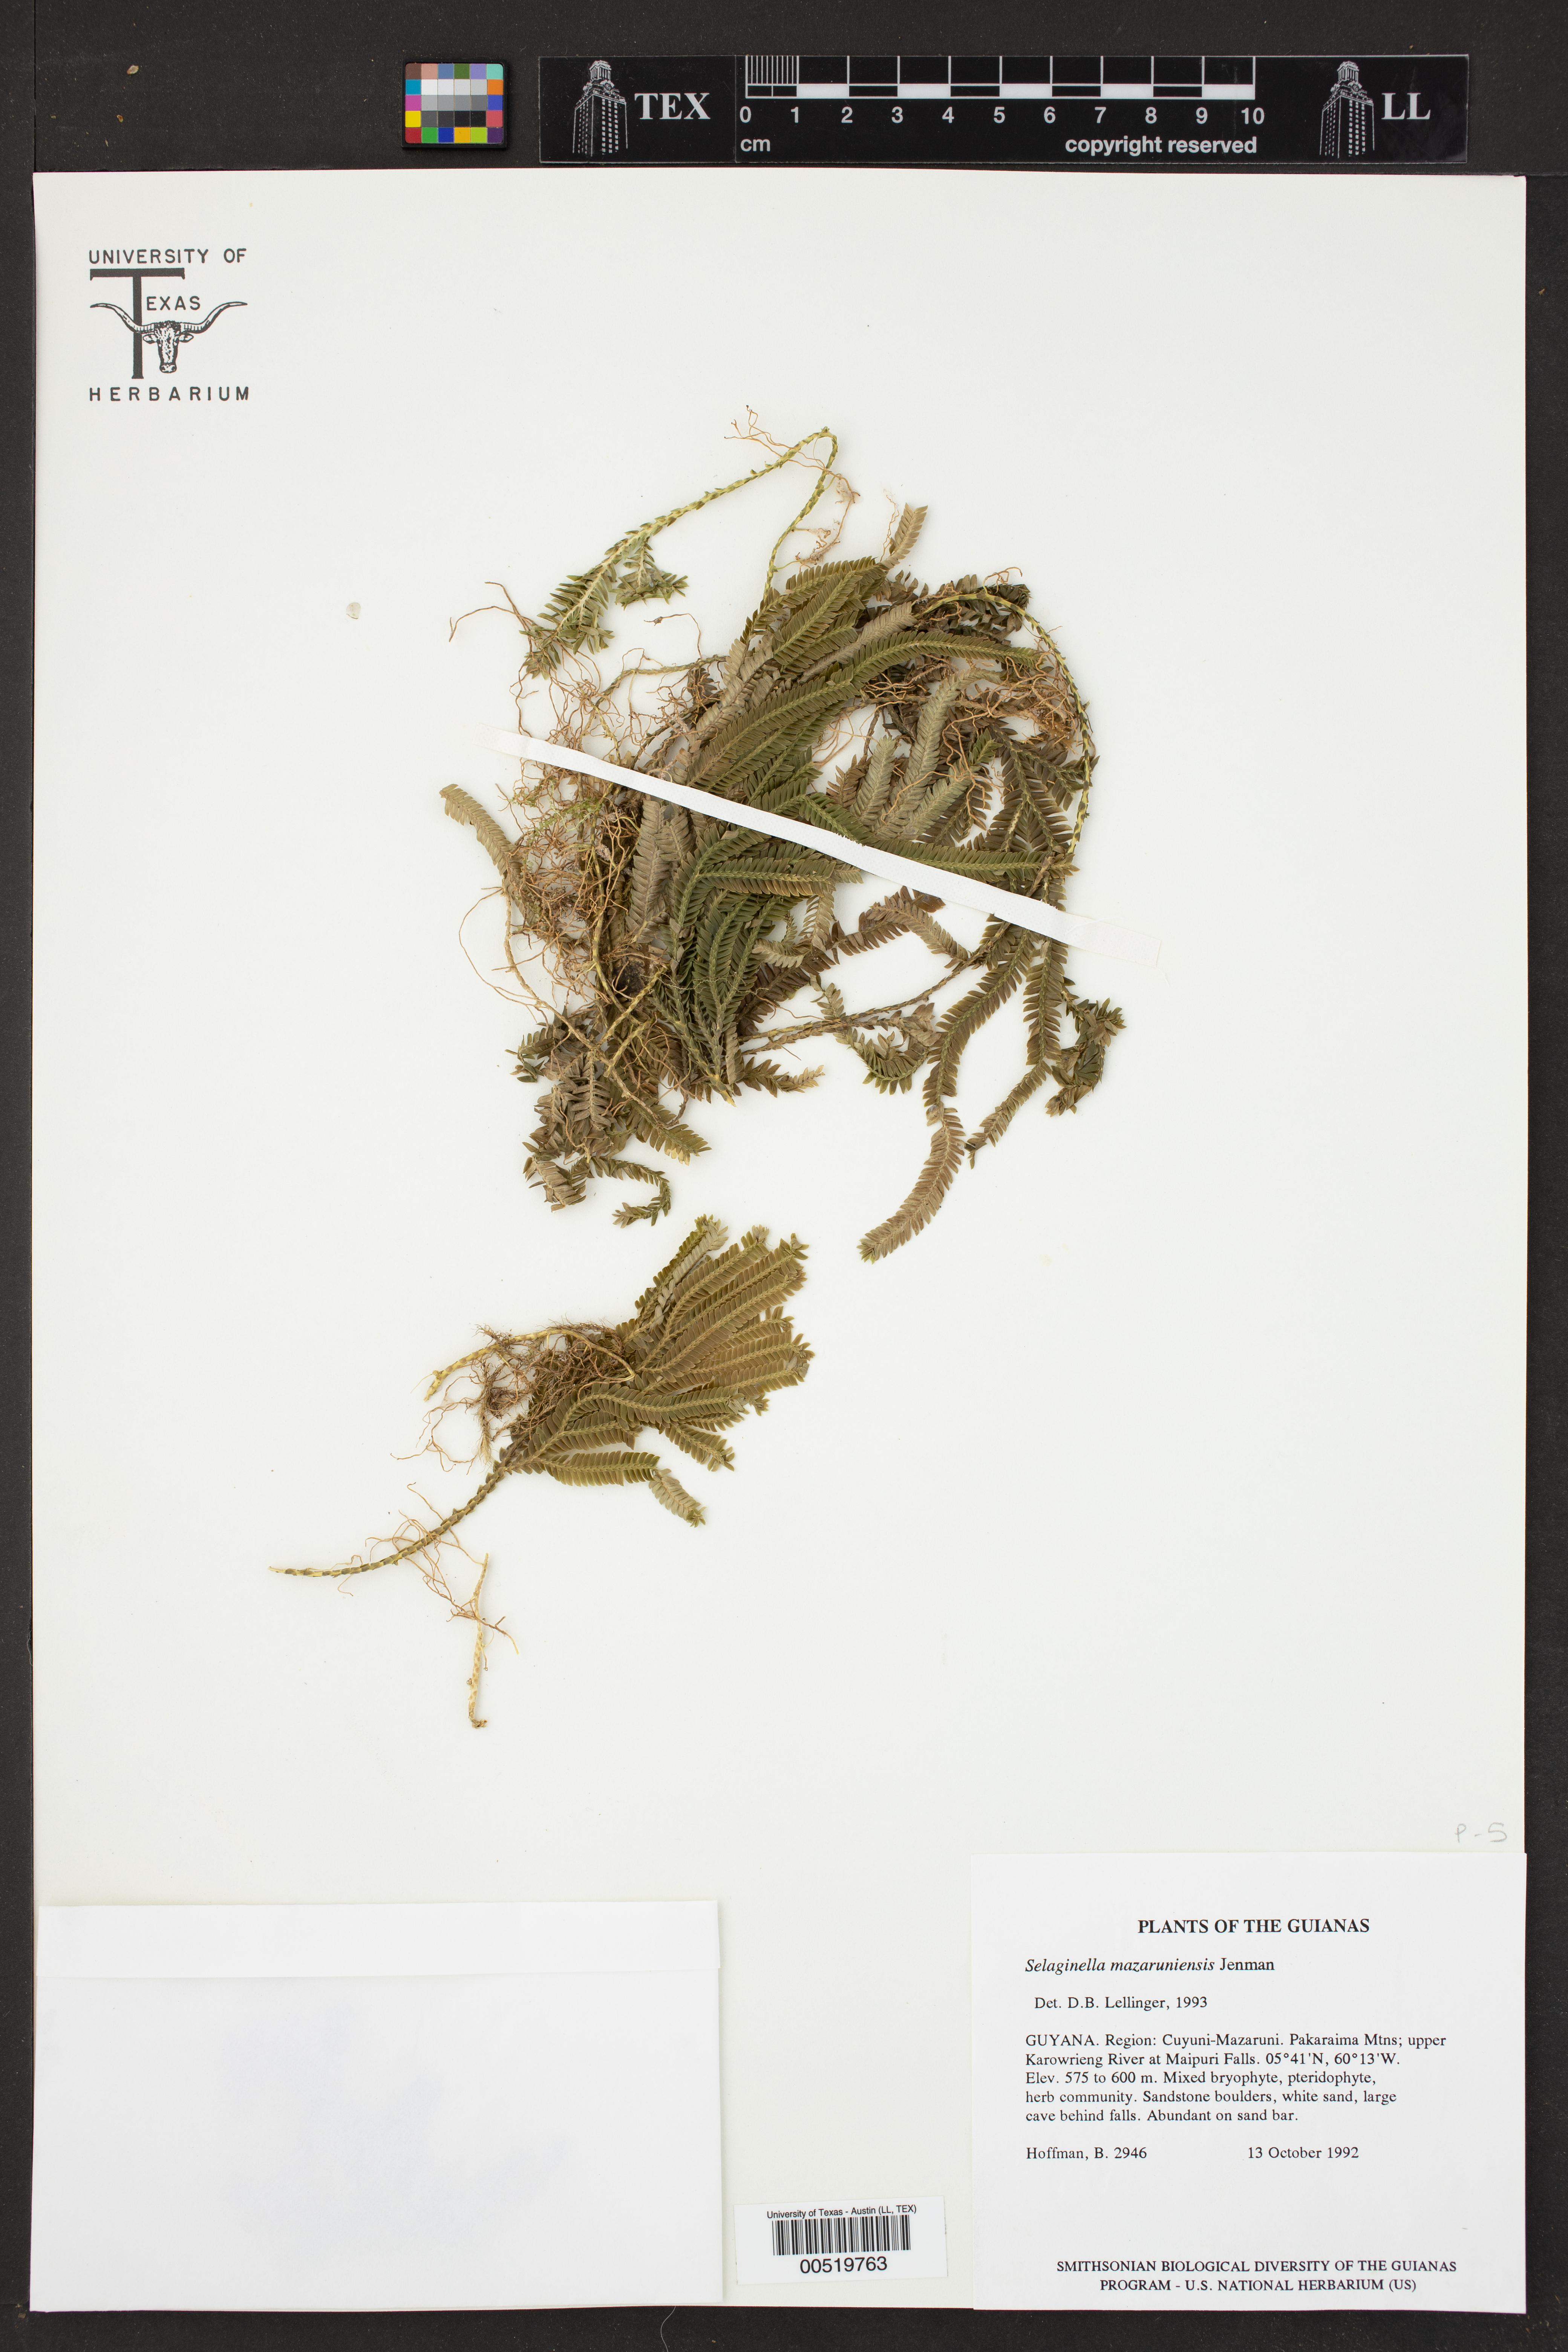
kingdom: Plantae
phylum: Tracheophyta
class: Lycopodiopsida
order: Selaginellales
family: Selaginellaceae
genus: Selaginella
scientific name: Selaginella mazaruniense
